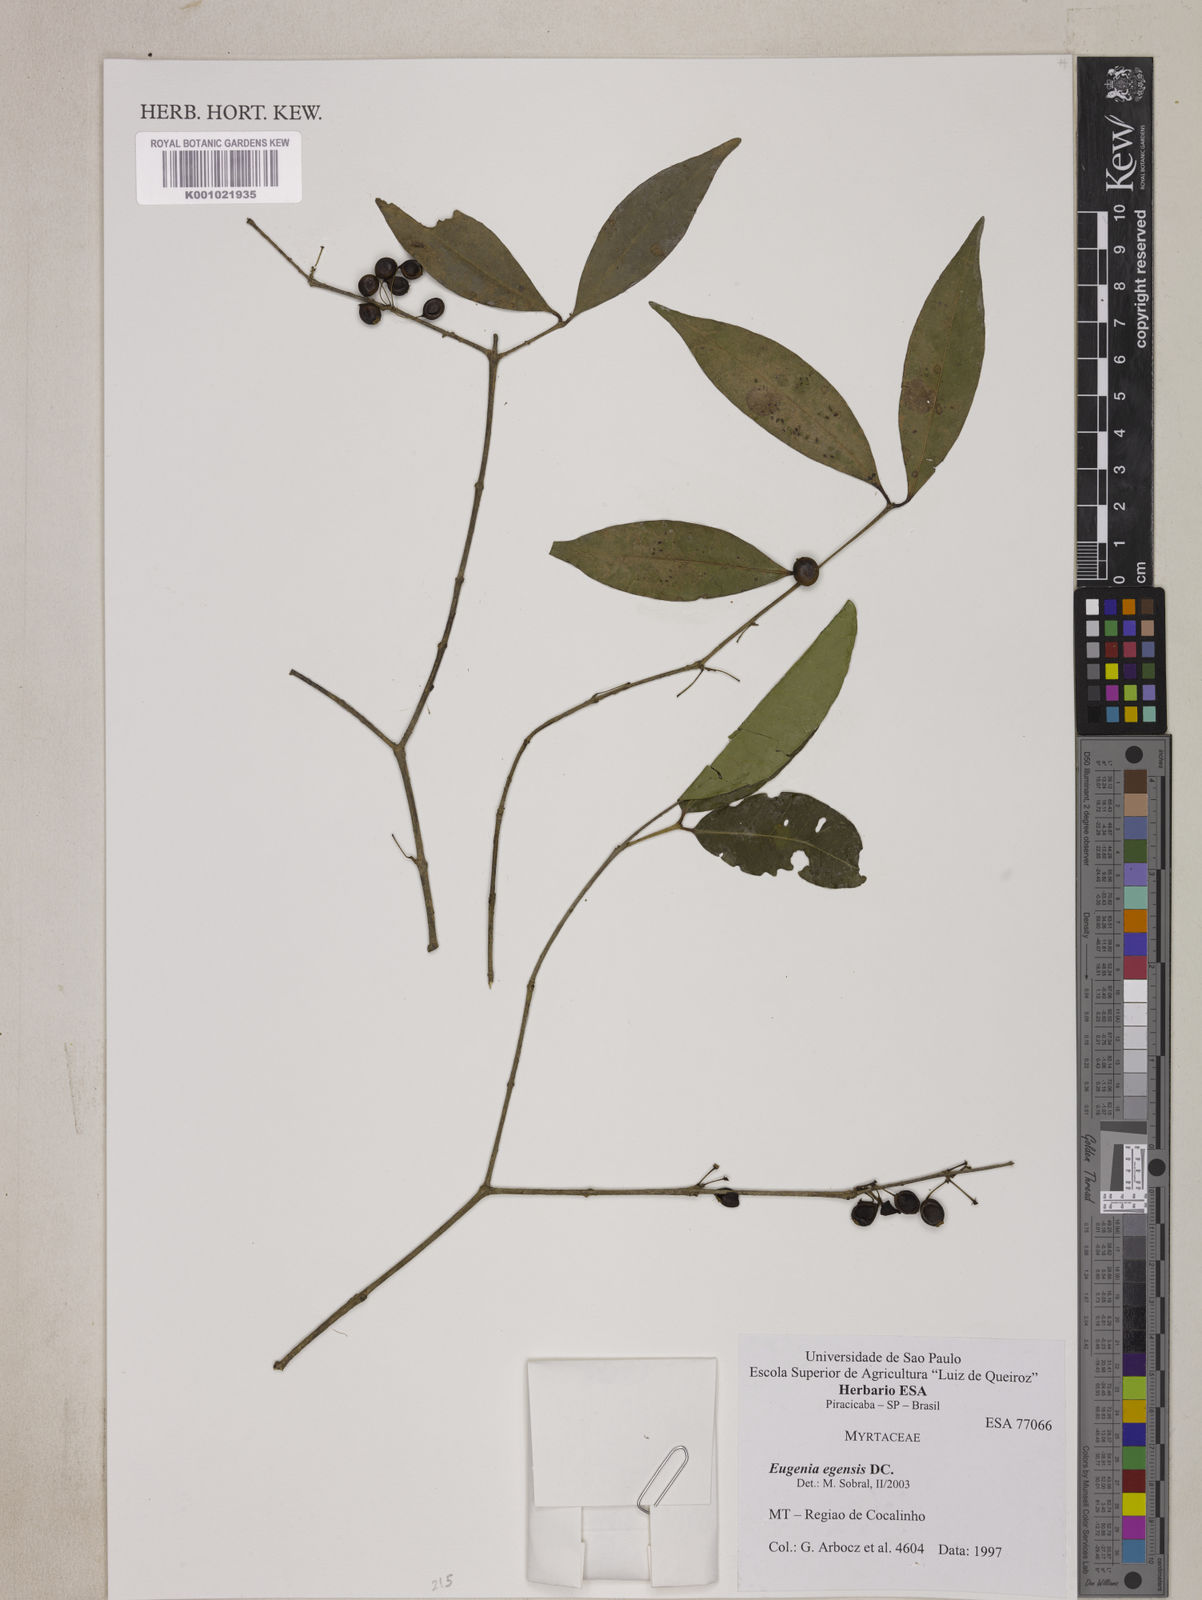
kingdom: Plantae
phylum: Tracheophyta
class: Magnoliopsida
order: Myrtales
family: Myrtaceae
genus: Eugenia
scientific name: Eugenia egensis
